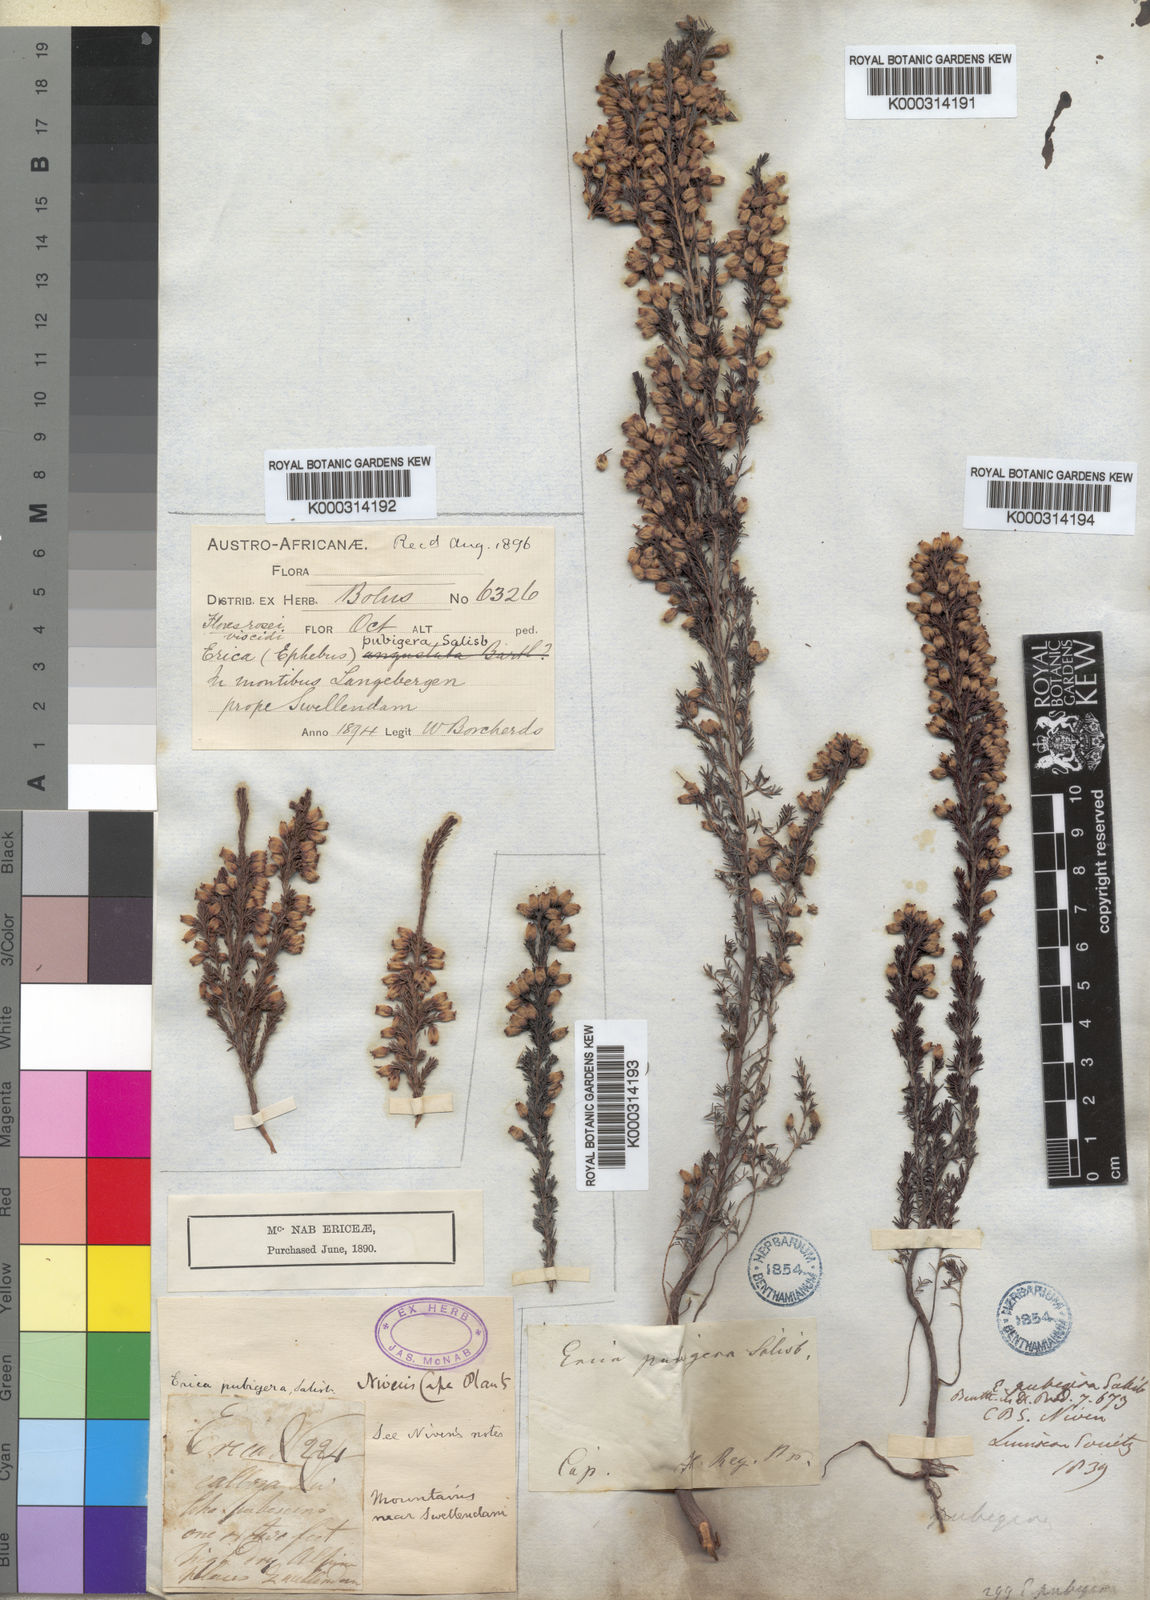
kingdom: Plantae
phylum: Tracheophyta
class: Magnoliopsida
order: Ericales
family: Ericaceae
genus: Erica
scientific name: Erica pubigera
